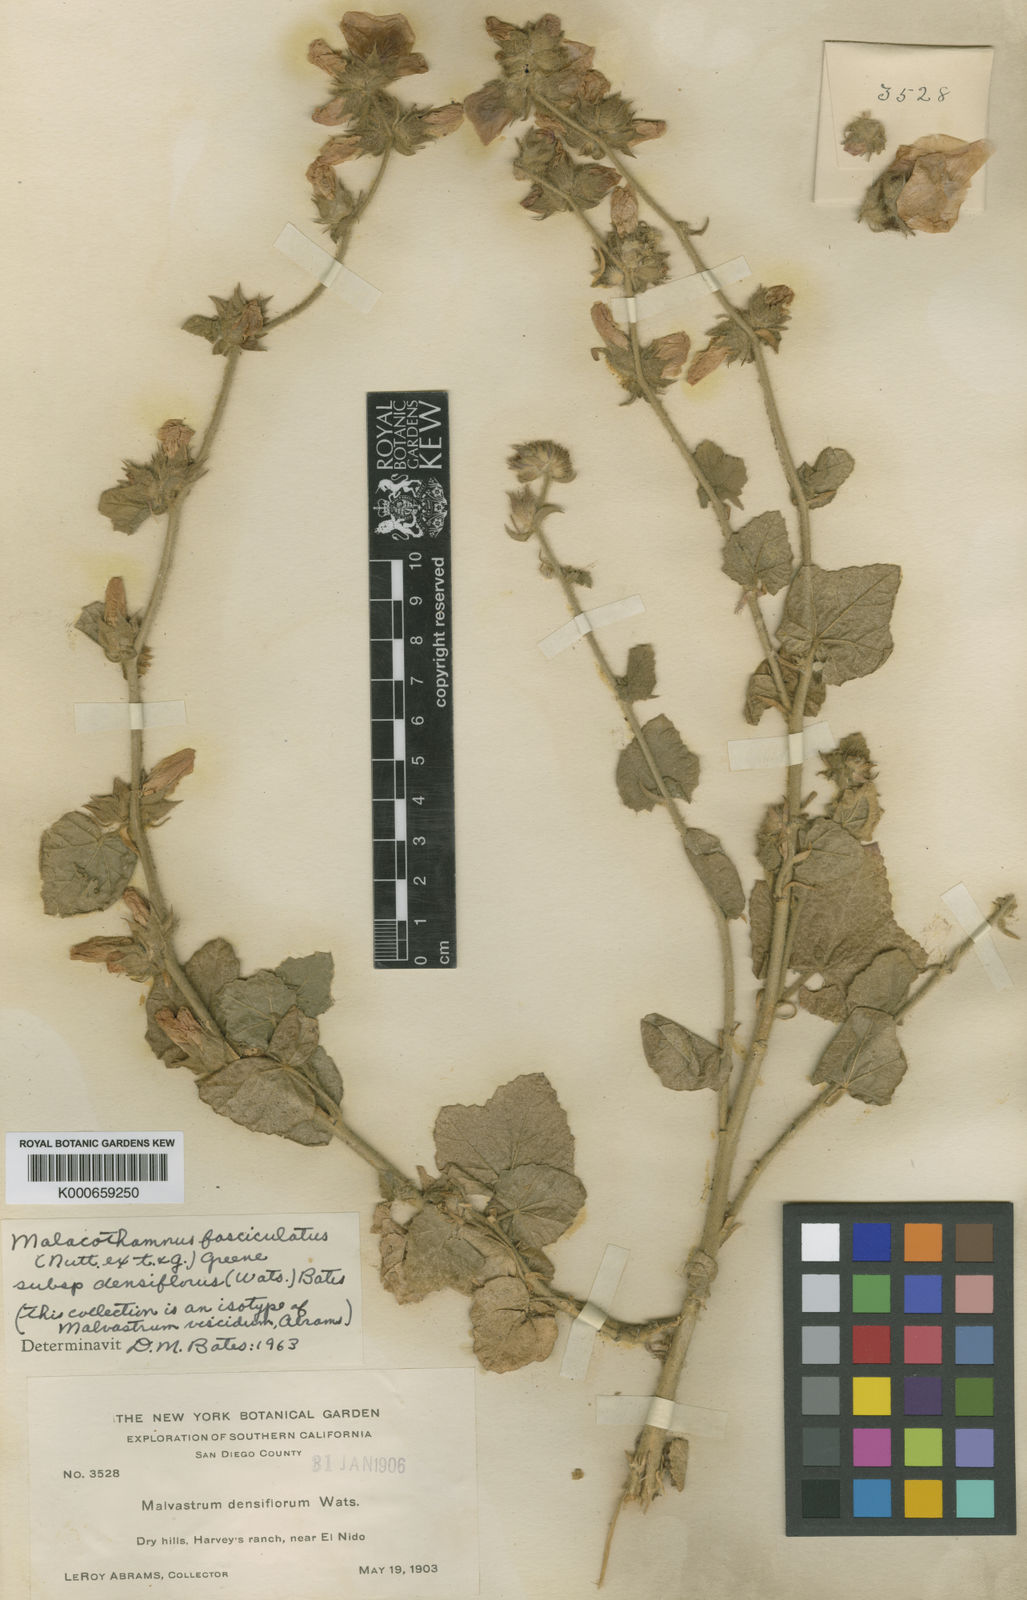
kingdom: Plantae
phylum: Tracheophyta
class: Magnoliopsida
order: Malvales
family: Malvaceae
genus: Malacothamnus
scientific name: Malacothamnus fasciculatus
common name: Sant cruz island bush-mallow
